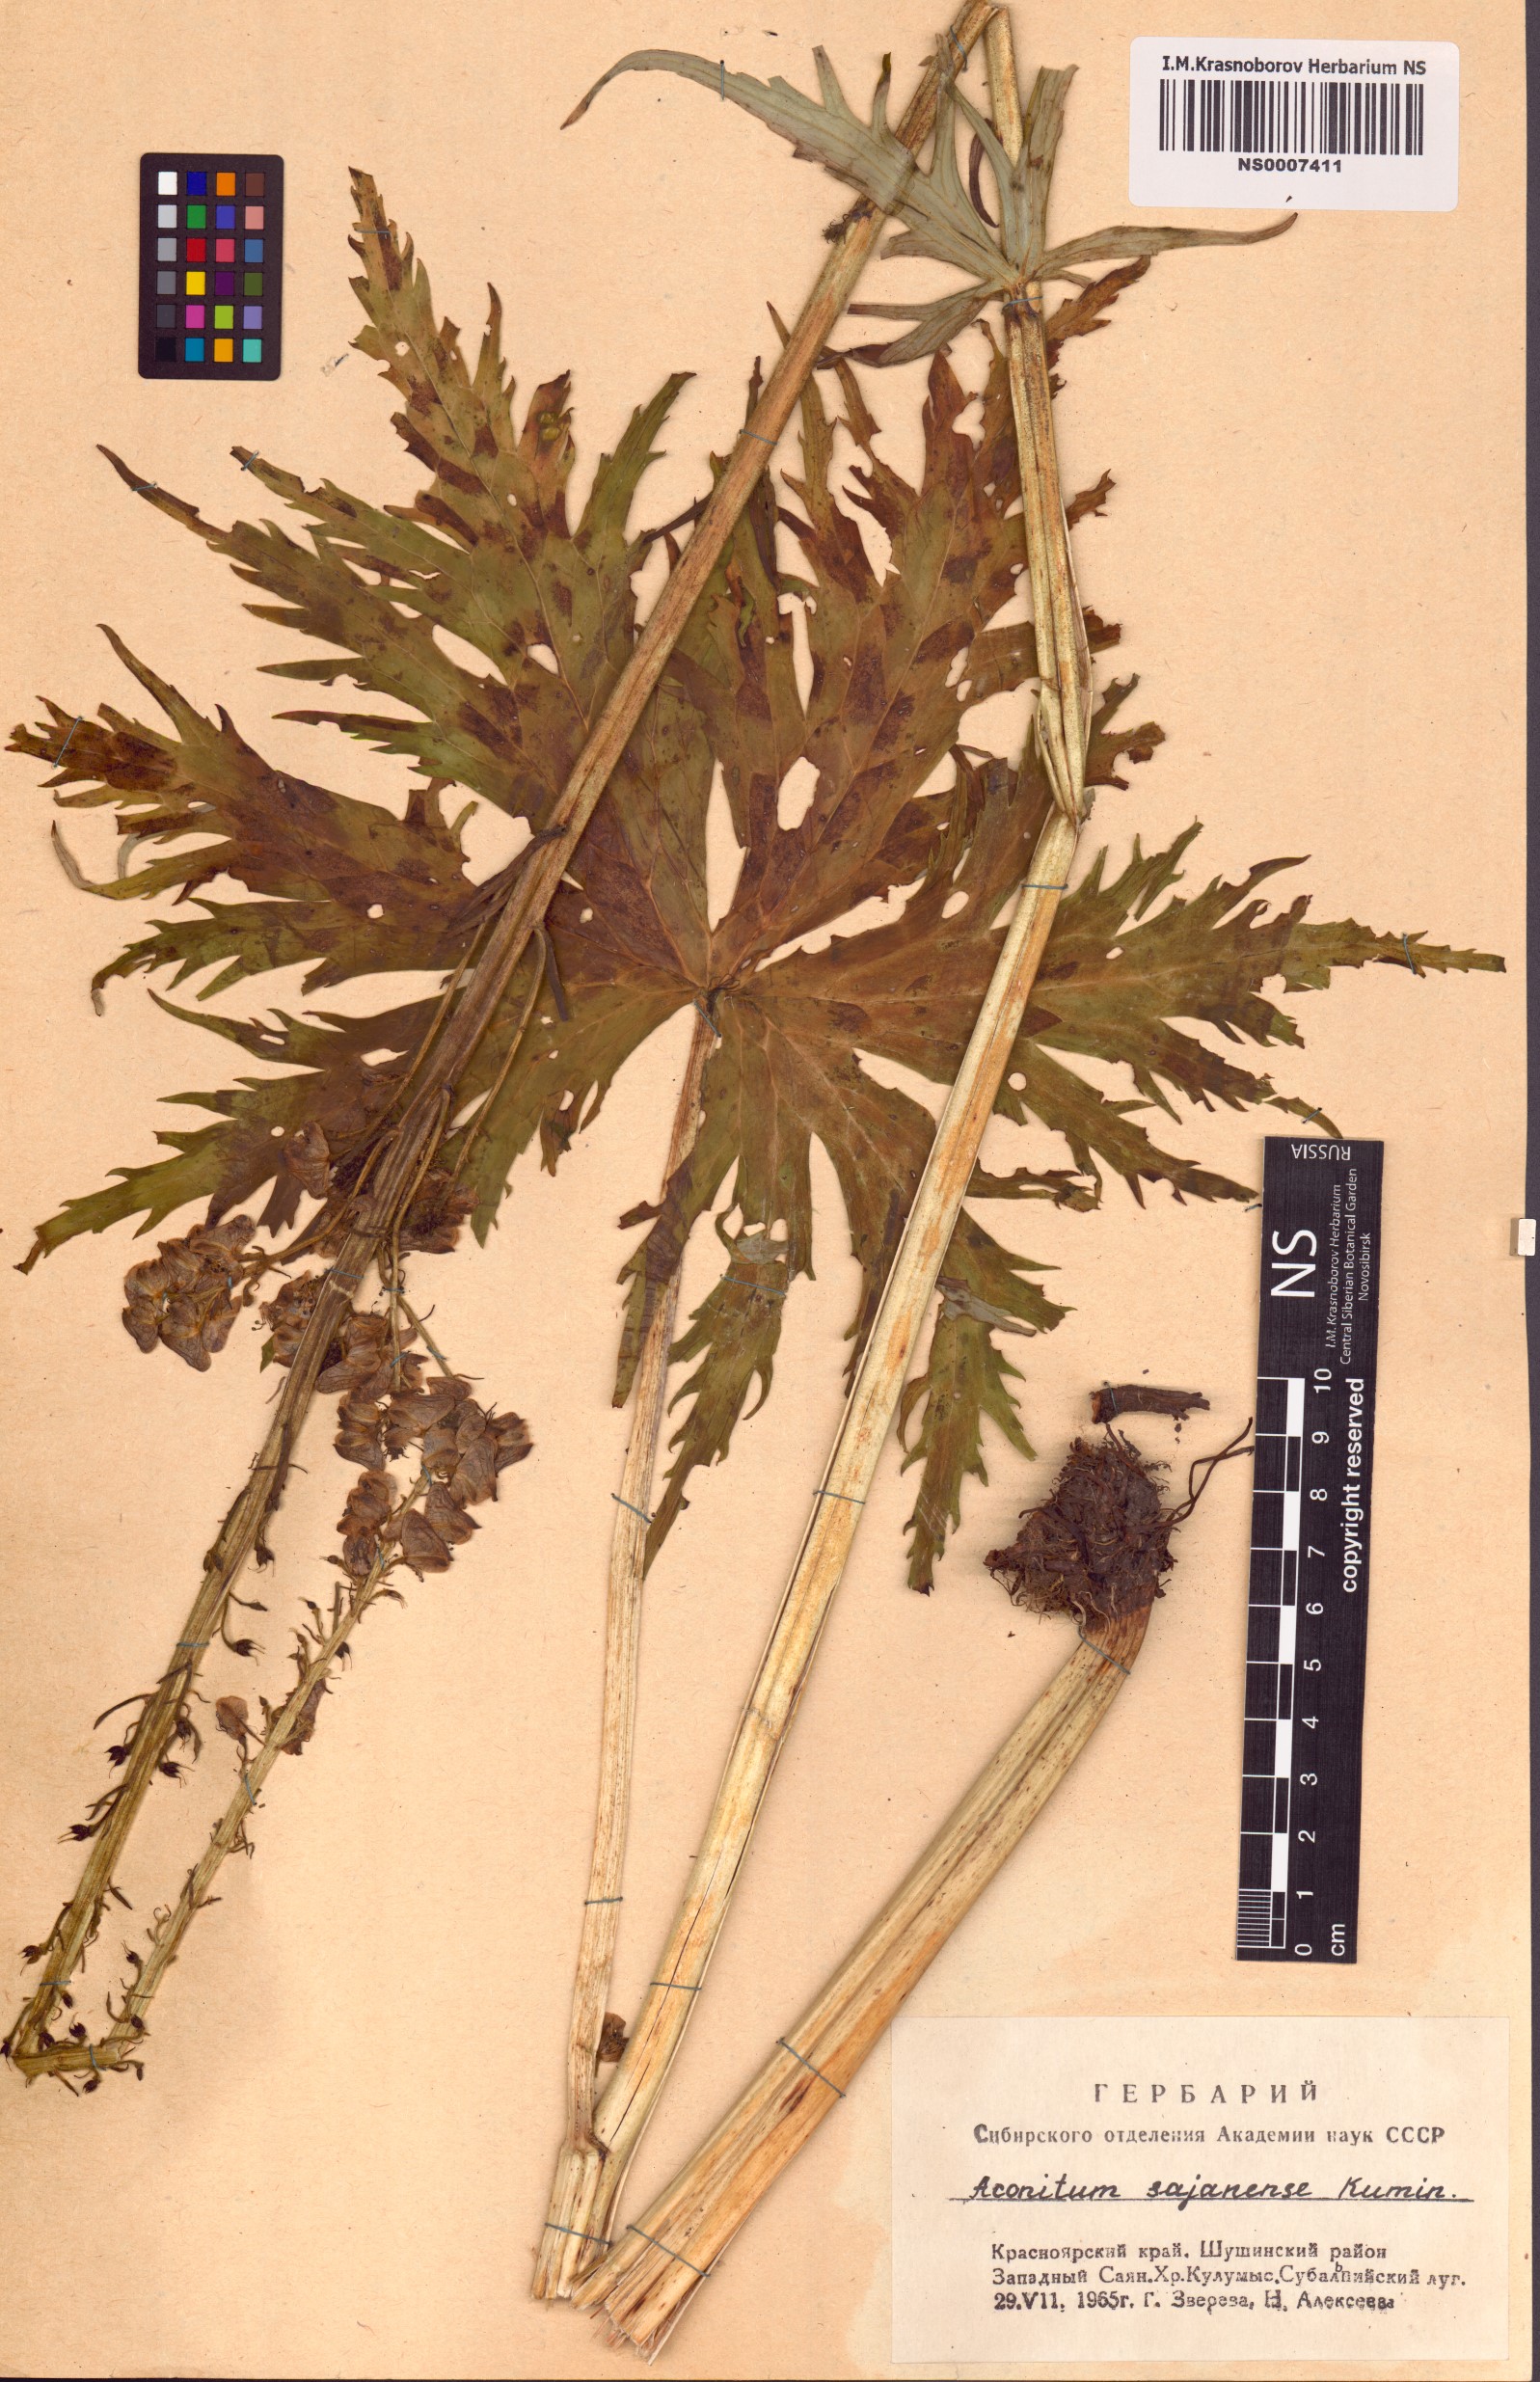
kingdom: Plantae
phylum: Tracheophyta
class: Magnoliopsida
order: Ranunculales
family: Ranunculaceae
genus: Aconitum
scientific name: Aconitum sajanense
